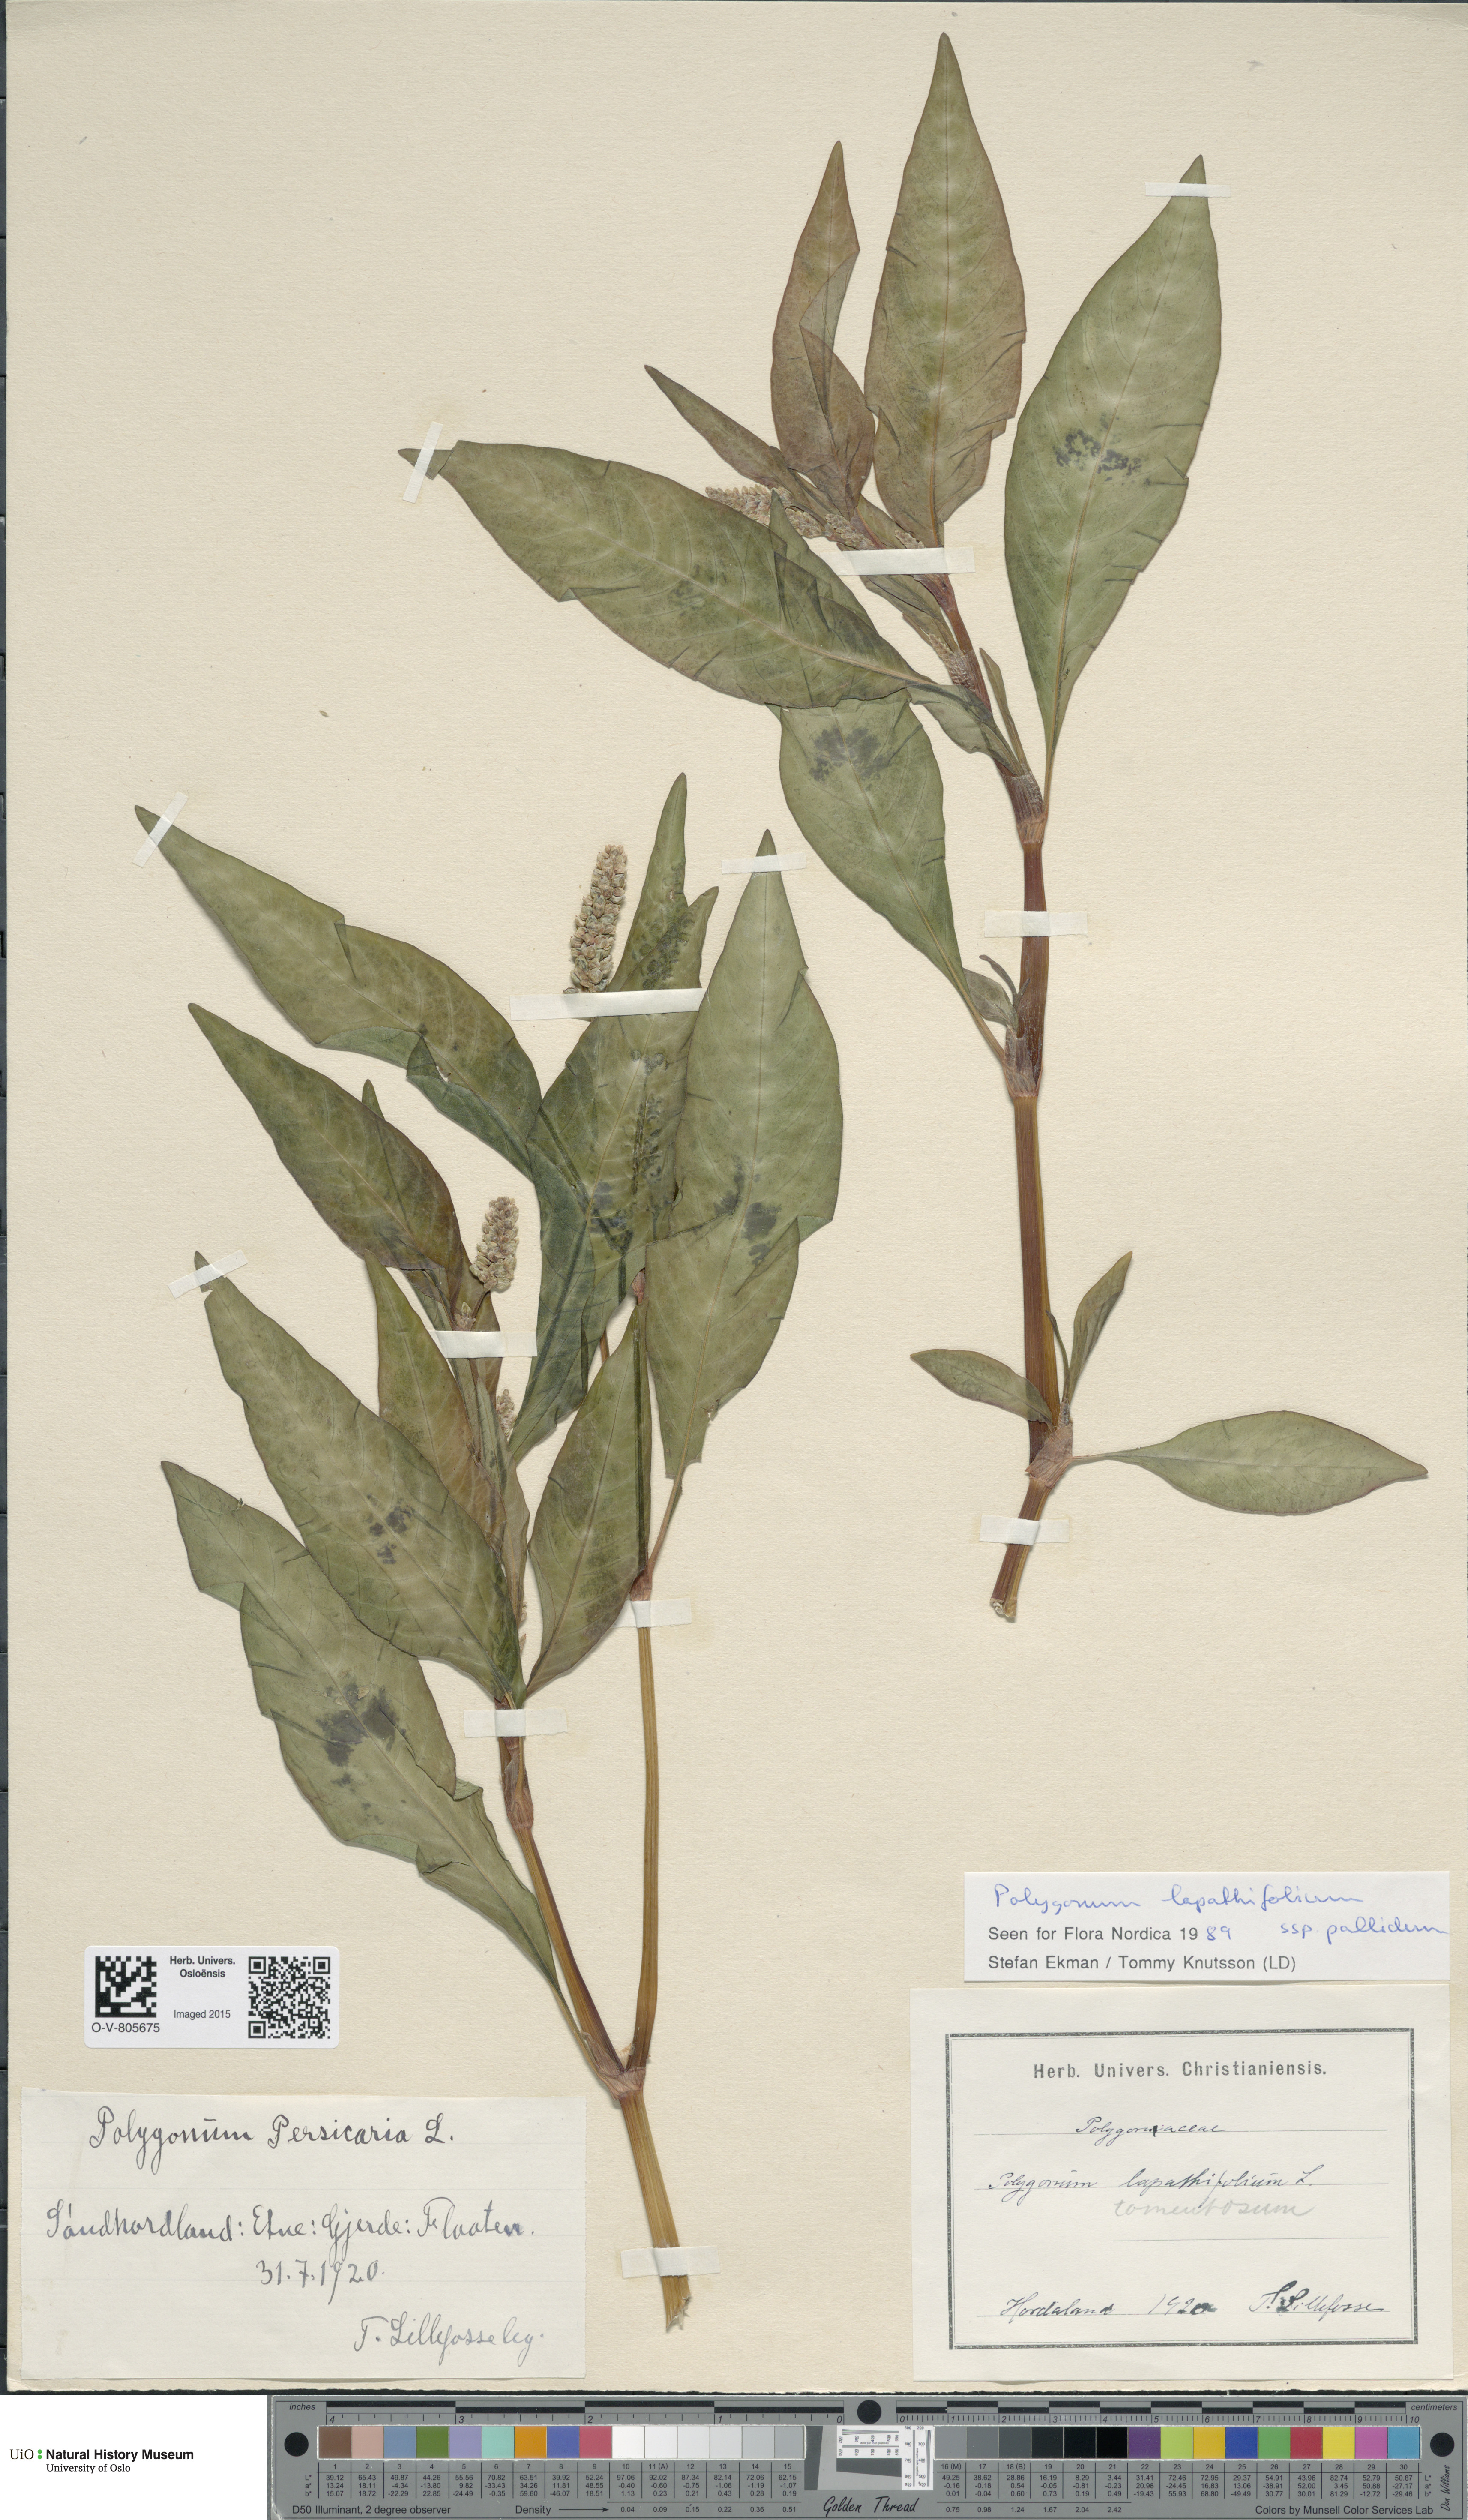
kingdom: Plantae
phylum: Tracheophyta
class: Magnoliopsida
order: Caryophyllales
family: Polygonaceae
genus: Persicaria
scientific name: Persicaria lapathifolia
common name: Curlytop knotweed
